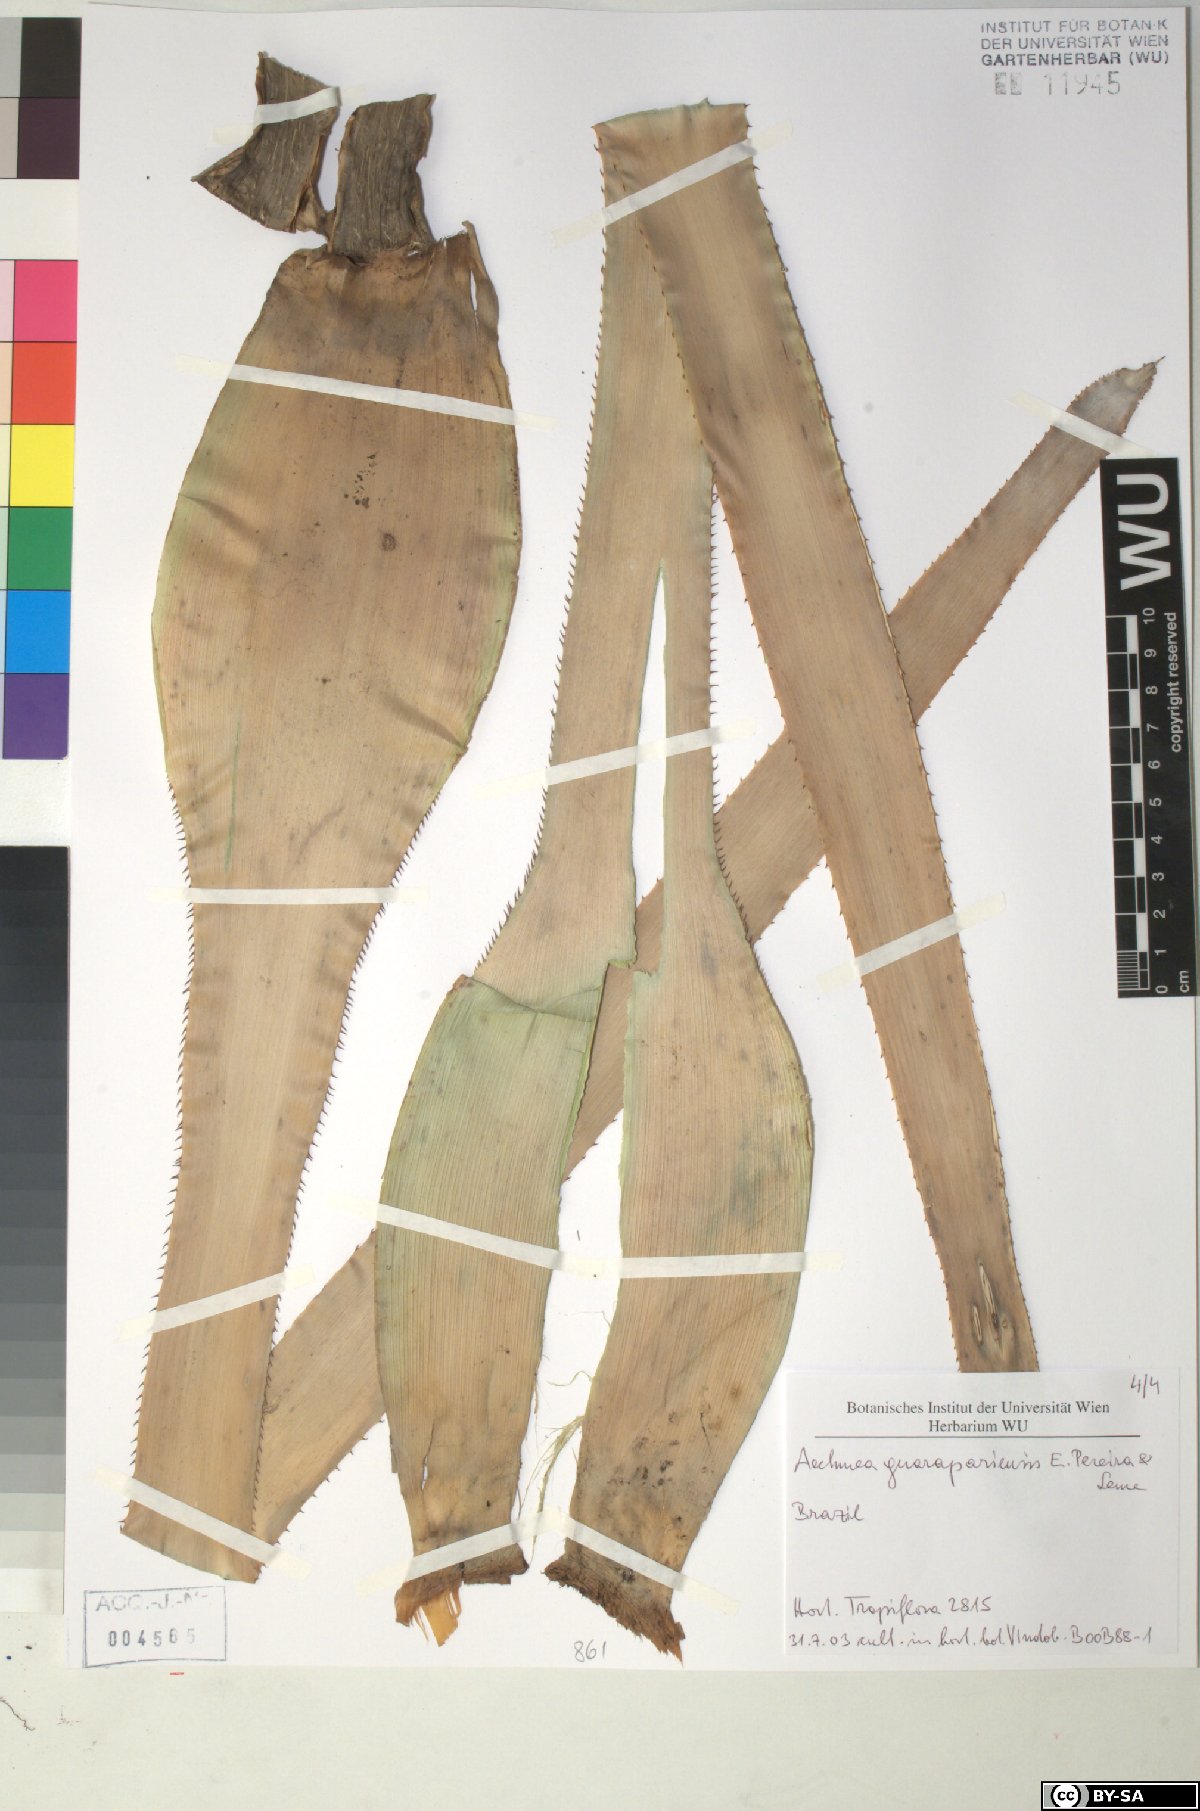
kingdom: Plantae
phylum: Tracheophyta
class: Liliopsida
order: Poales
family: Bromeliaceae
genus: Aechmea
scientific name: Aechmea roberto-seidelii
